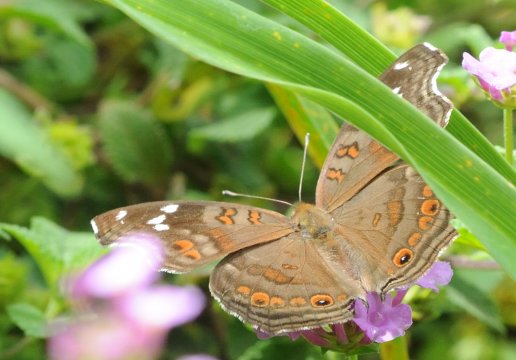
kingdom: Animalia
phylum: Arthropoda
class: Insecta
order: Lepidoptera
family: Nymphalidae
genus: Junonia
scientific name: Junonia natalica
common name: Natal Pansy
